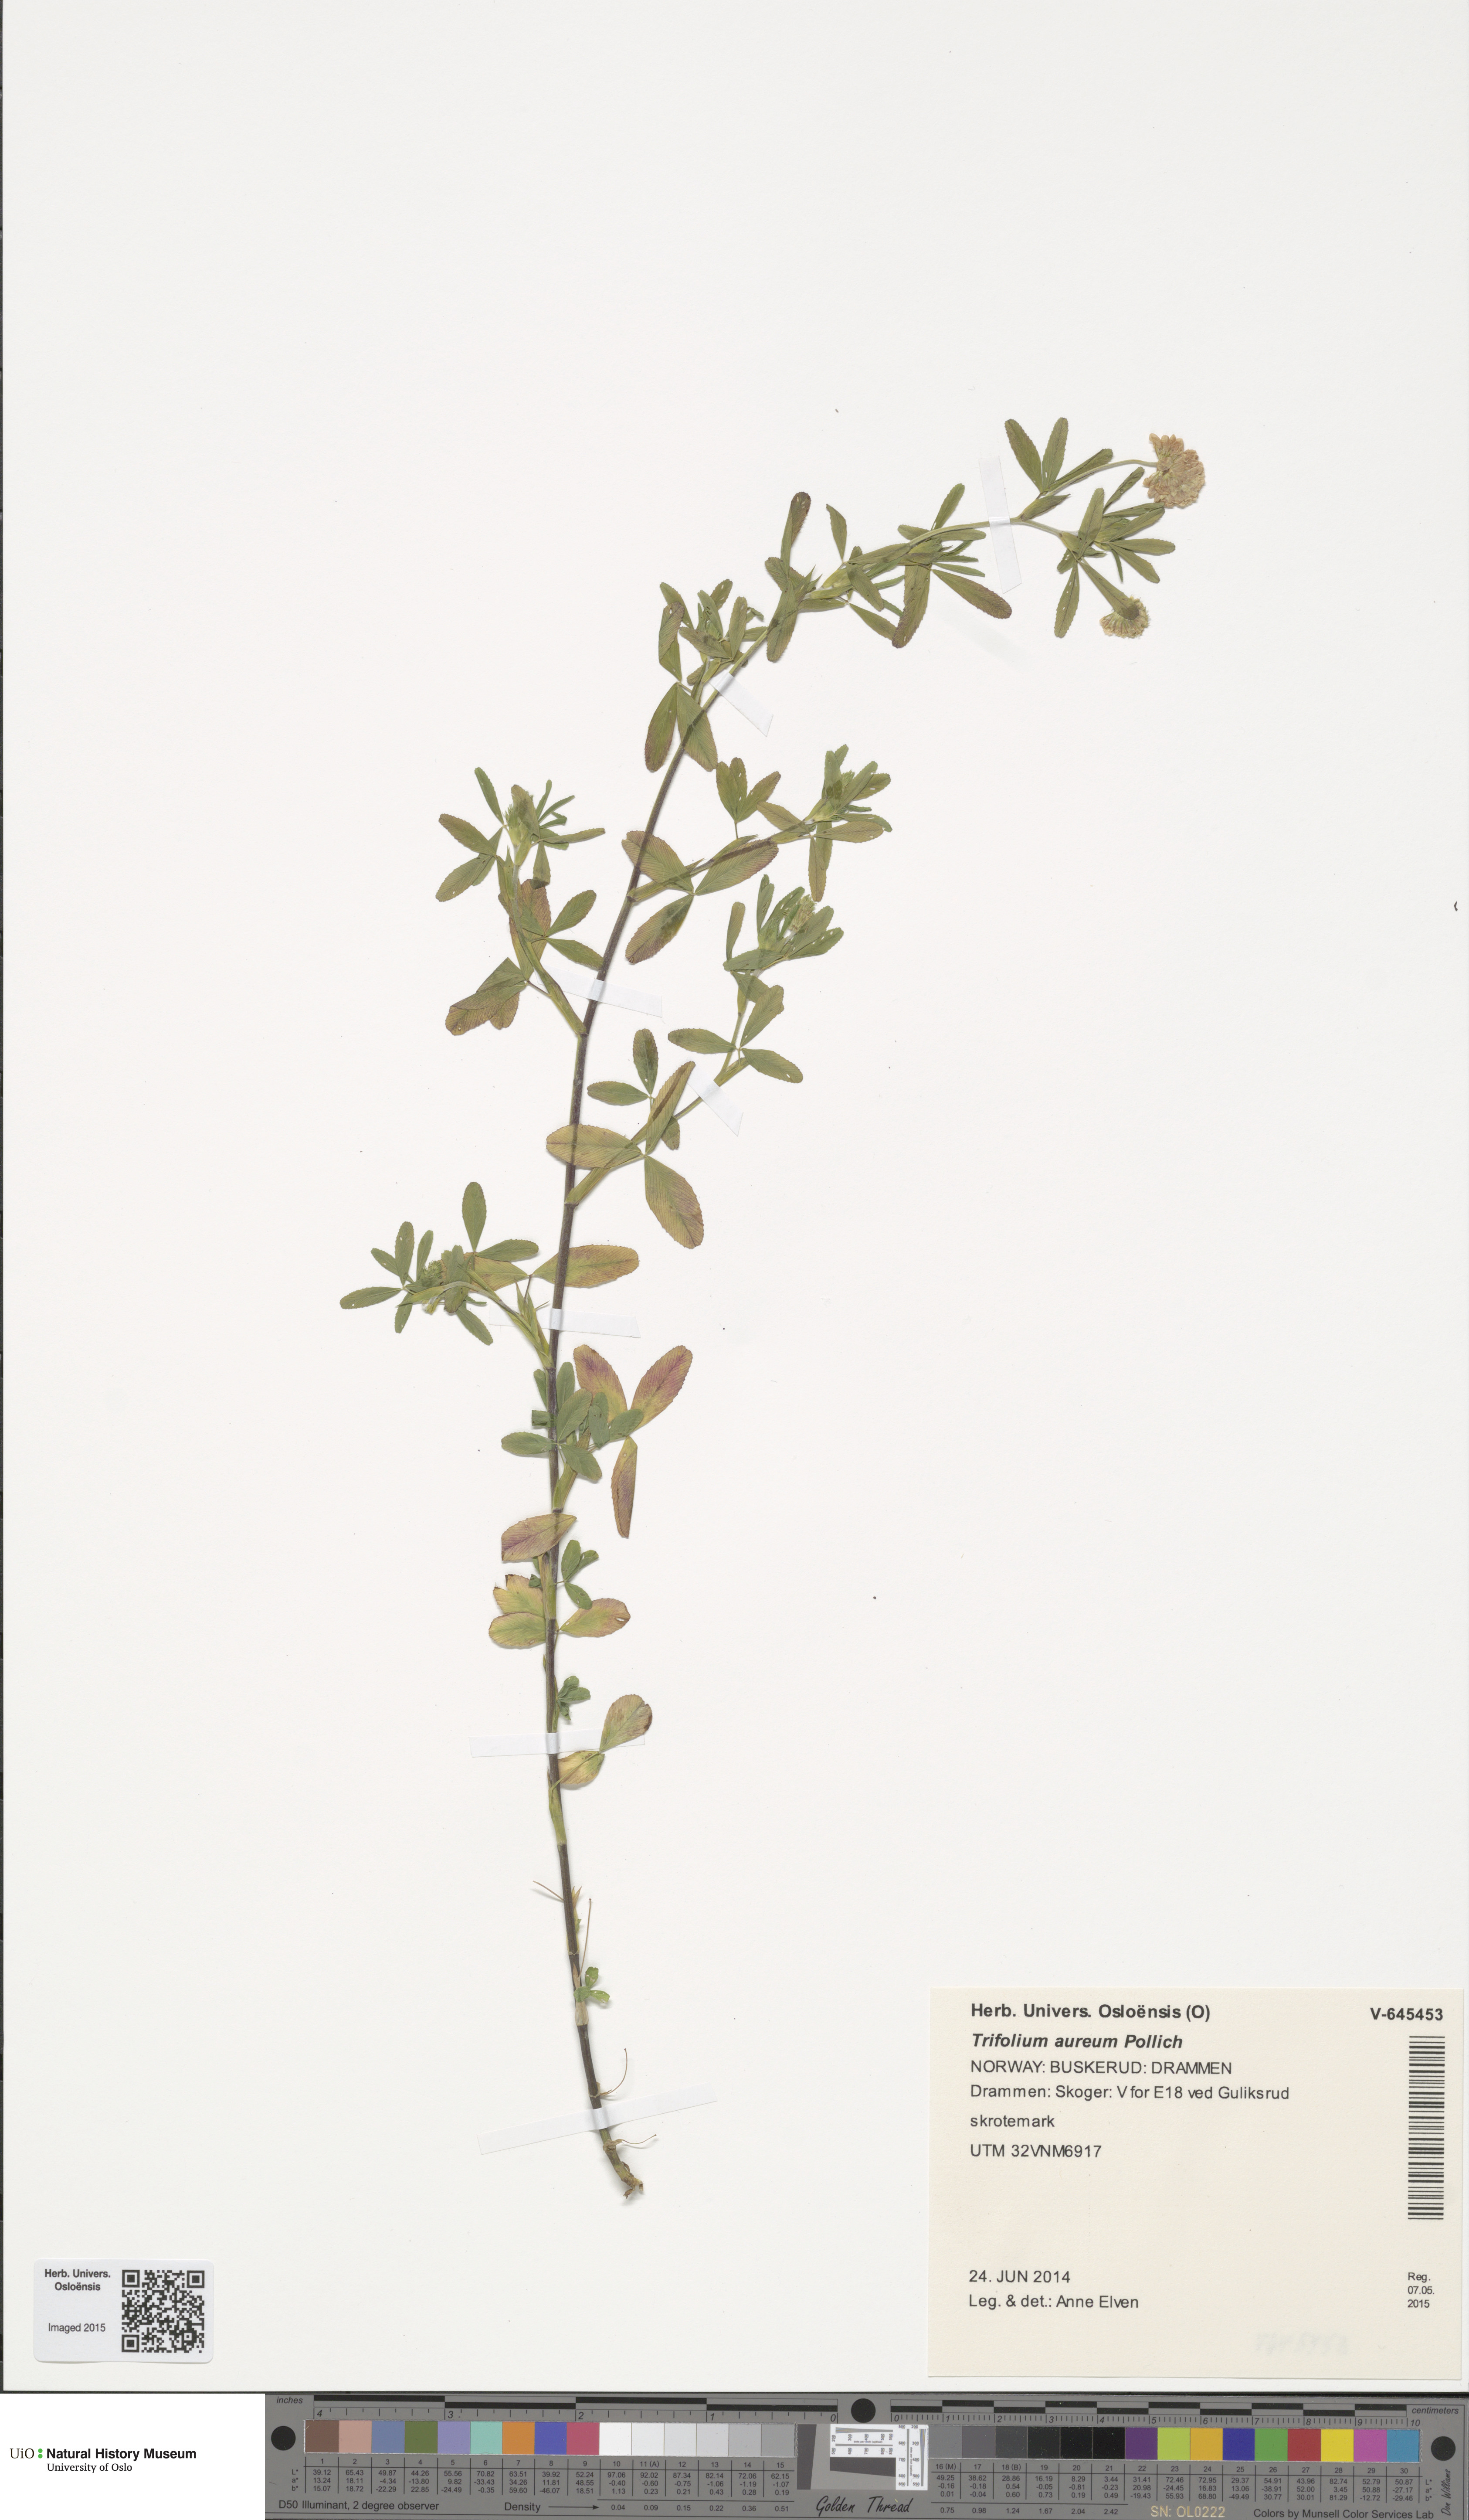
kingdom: Plantae
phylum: Tracheophyta
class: Magnoliopsida
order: Fabales
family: Fabaceae
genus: Trifolium
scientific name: Trifolium aureum
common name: Golden clover
